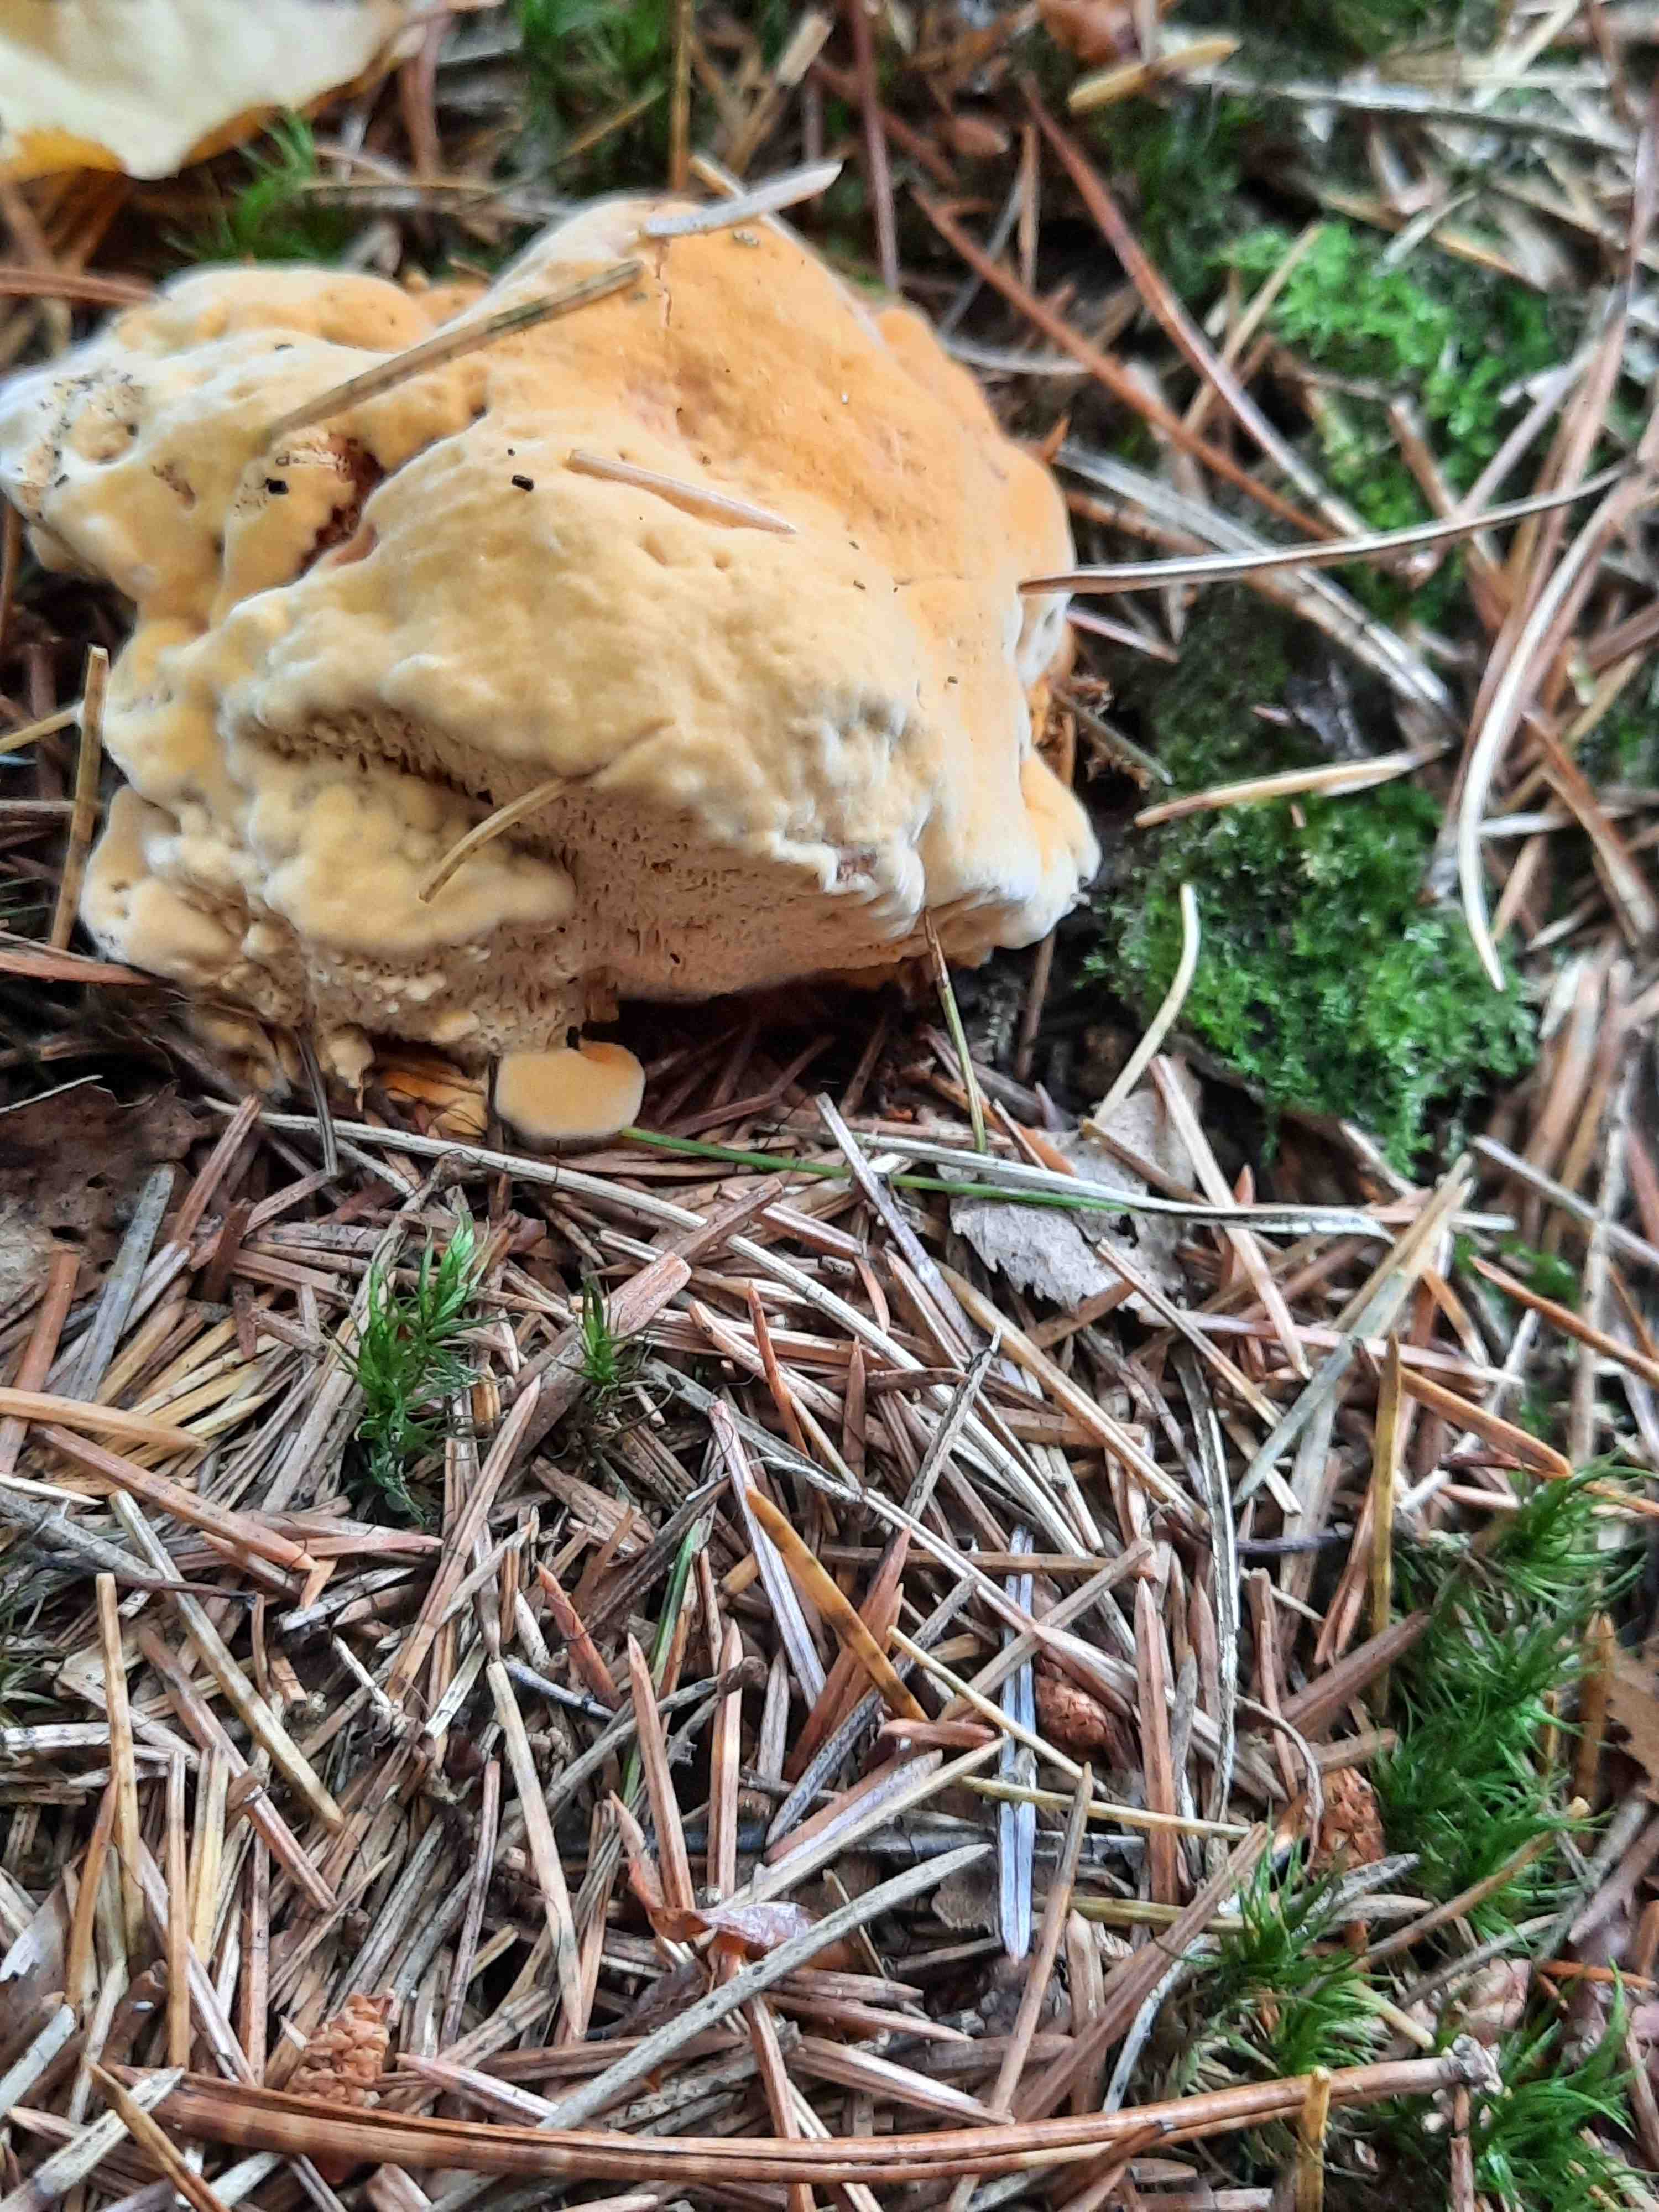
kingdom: Fungi
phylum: Basidiomycota
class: Agaricomycetes
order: Gloeophyllales
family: Gloeophyllaceae
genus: Gloeophyllum
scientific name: Gloeophyllum odoratum
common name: duftende korkhat
